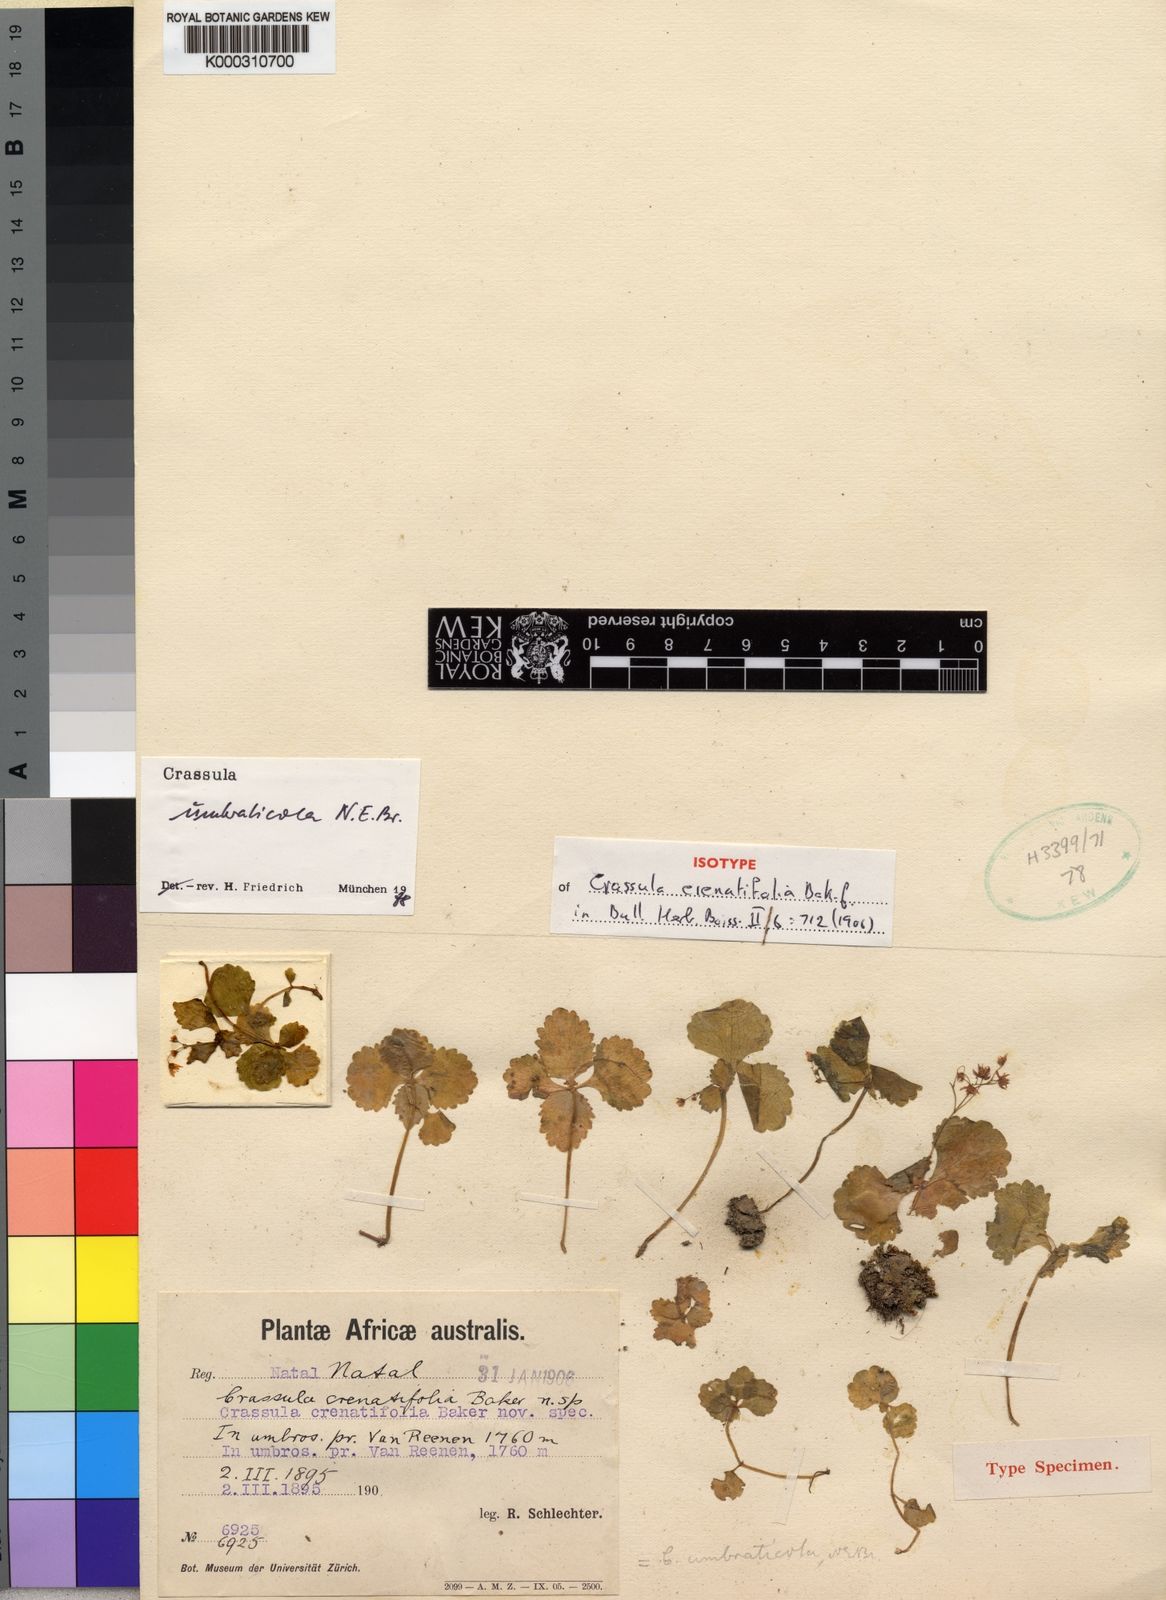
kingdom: Plantae
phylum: Tracheophyta
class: Magnoliopsida
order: Saxifragales
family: Crassulaceae
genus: Crassula
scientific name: Crassula umbraticola
